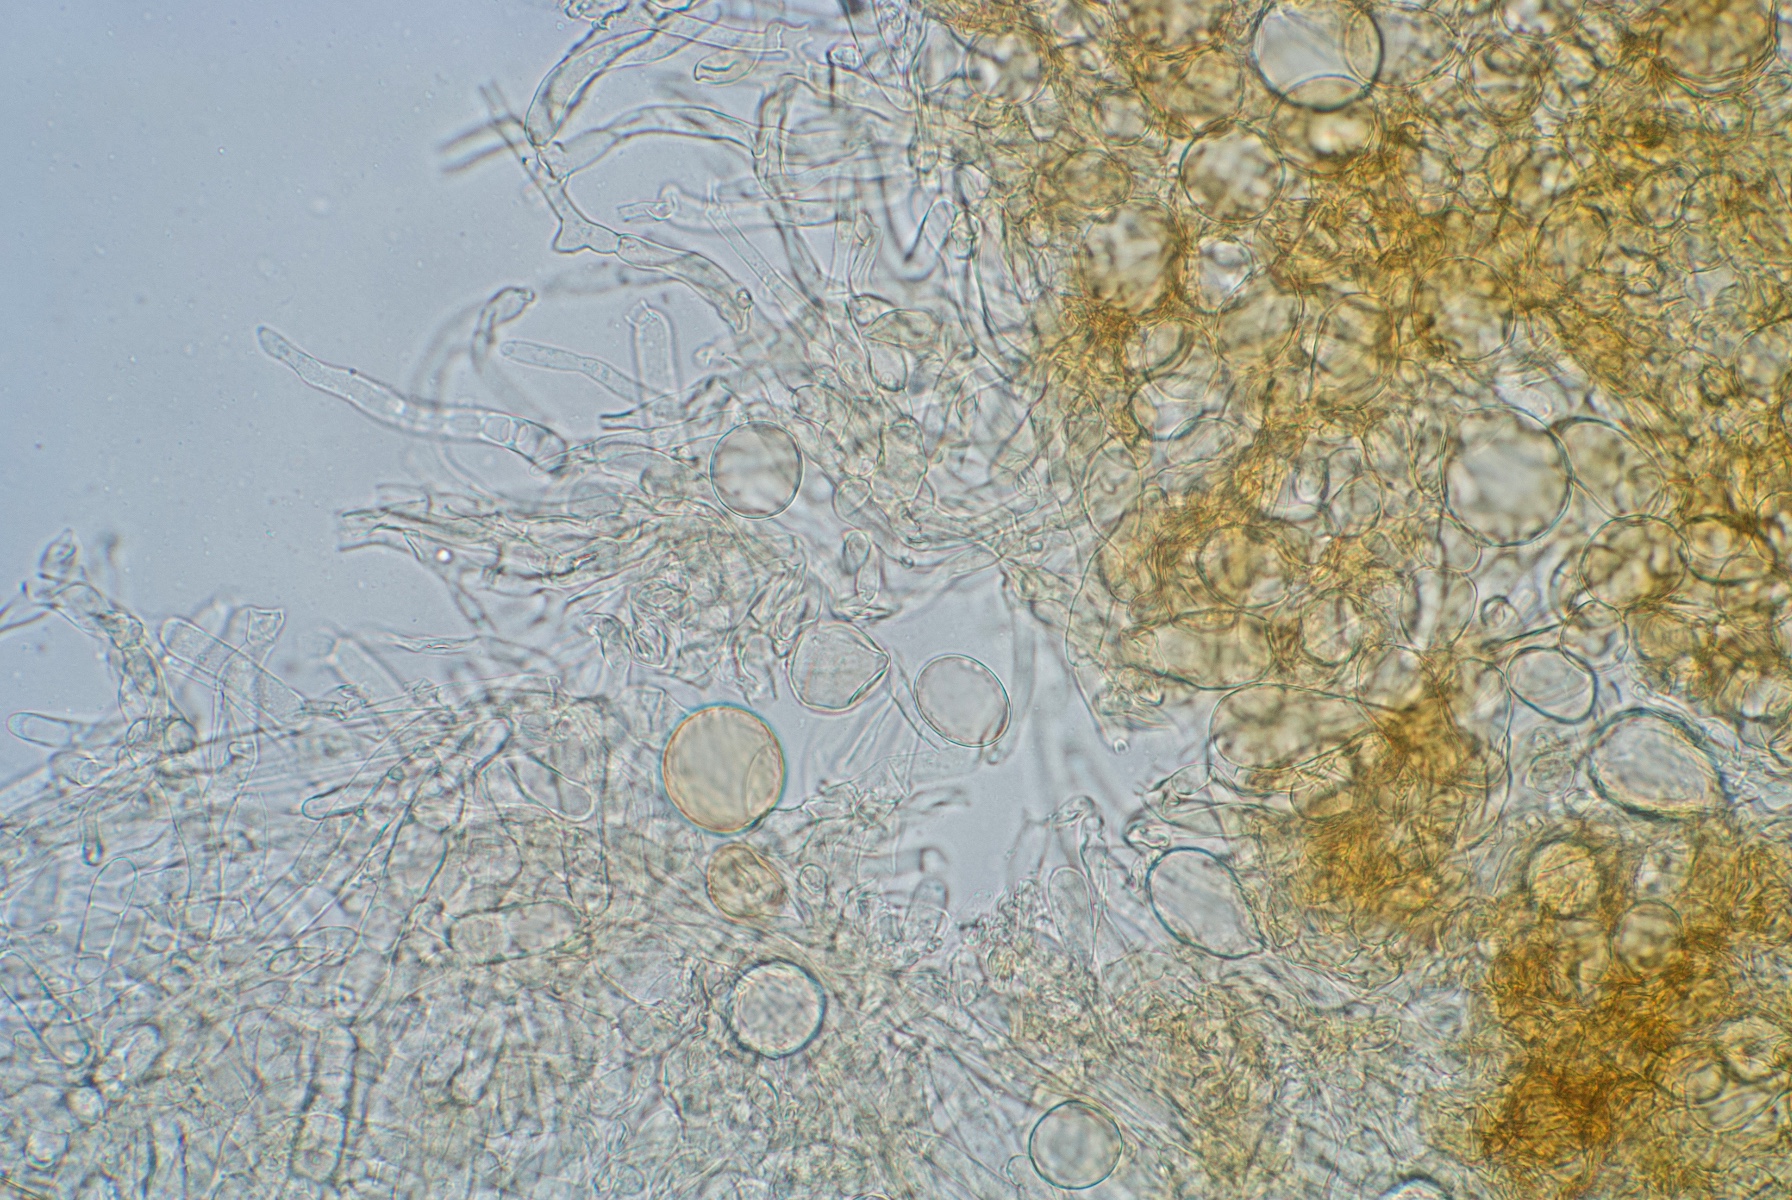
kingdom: Fungi
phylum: Basidiomycota
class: Agaricomycetes
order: Agaricales
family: Tricholomataceae
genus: Cystoderma
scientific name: Cystoderma amianthinum
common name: okkergul grynhat
